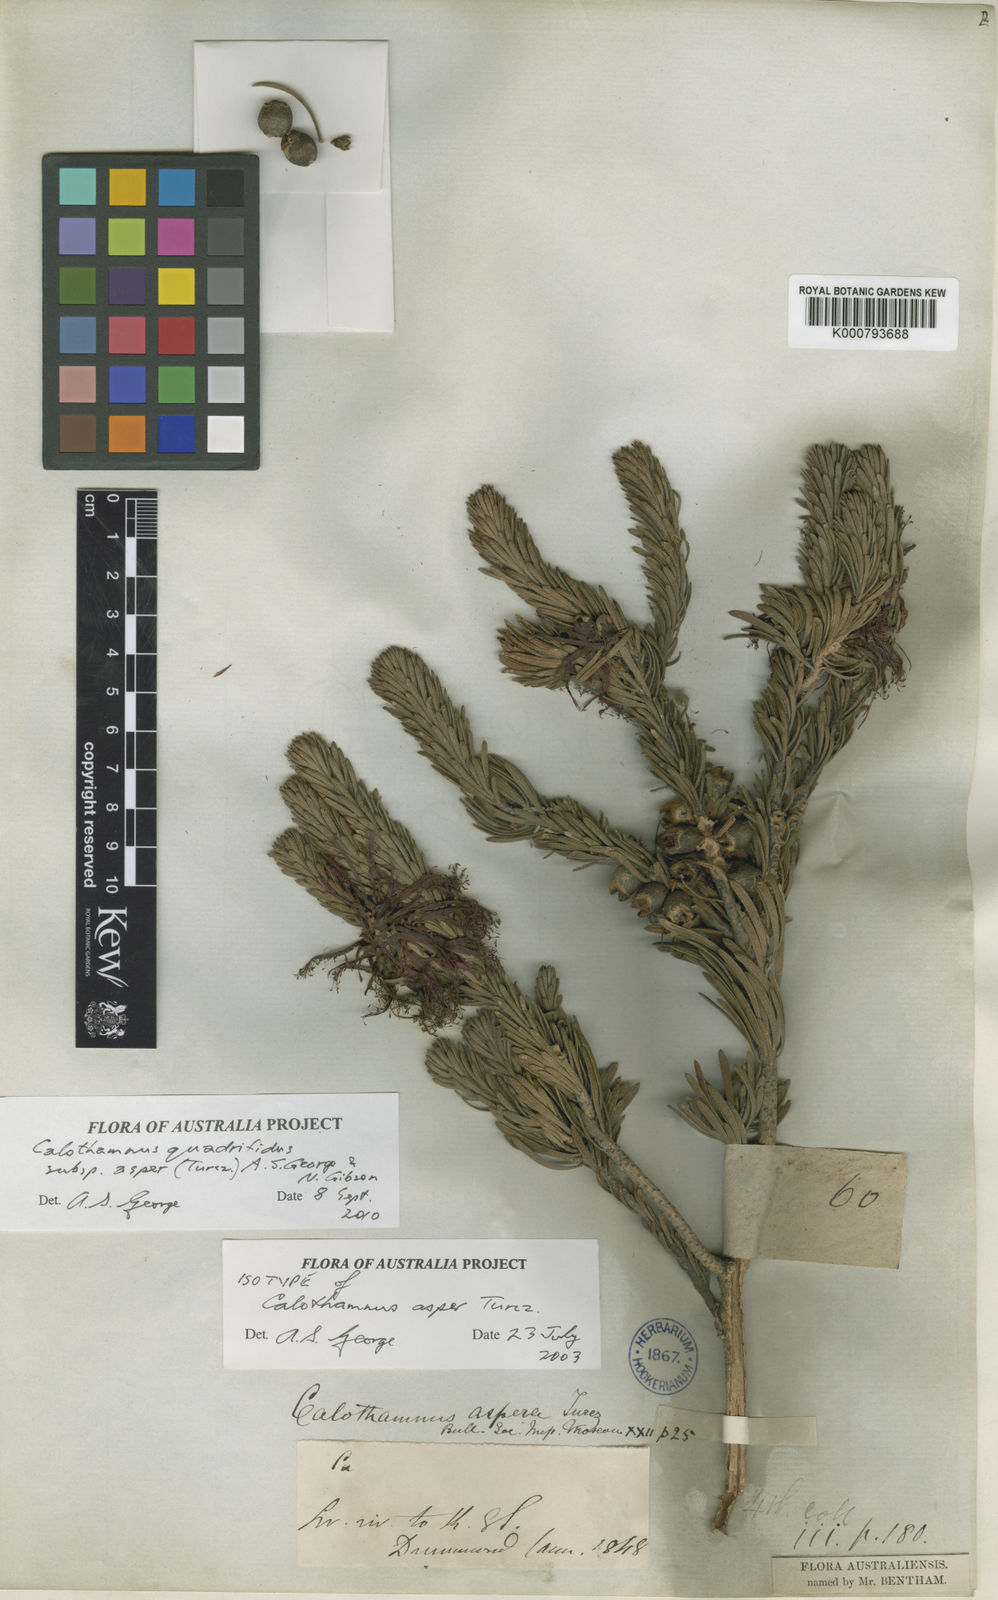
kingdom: Plantae
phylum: Tracheophyta
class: Magnoliopsida
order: Myrtales
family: Myrtaceae
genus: Melaleuca
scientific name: Melaleuca quadrifida
